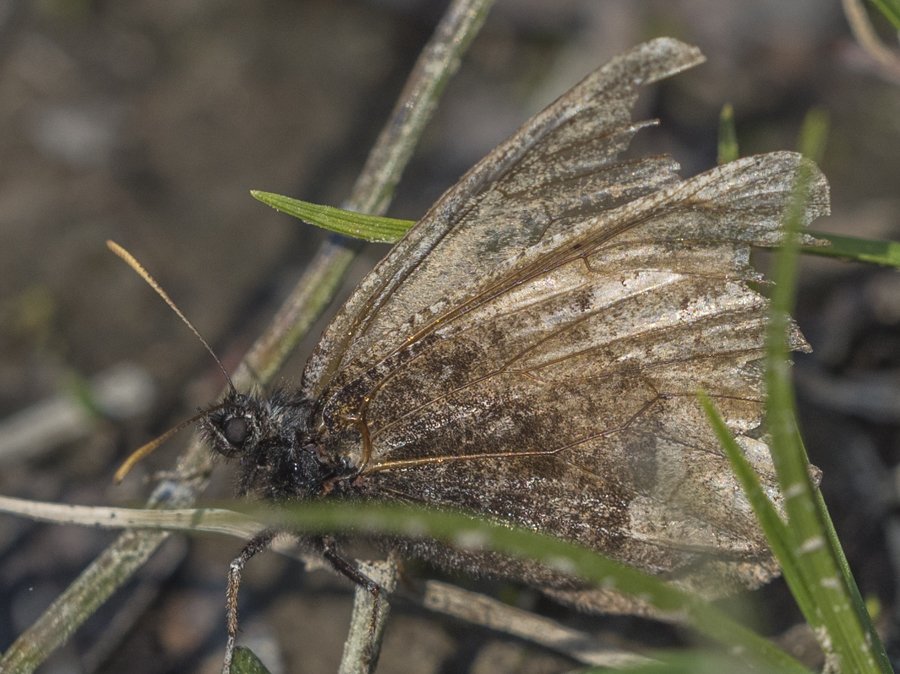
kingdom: Animalia
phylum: Arthropoda
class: Insecta
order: Lepidoptera
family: Nymphalidae
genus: Oeneis
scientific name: Oeneis melissa
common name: Melissa Arctic
